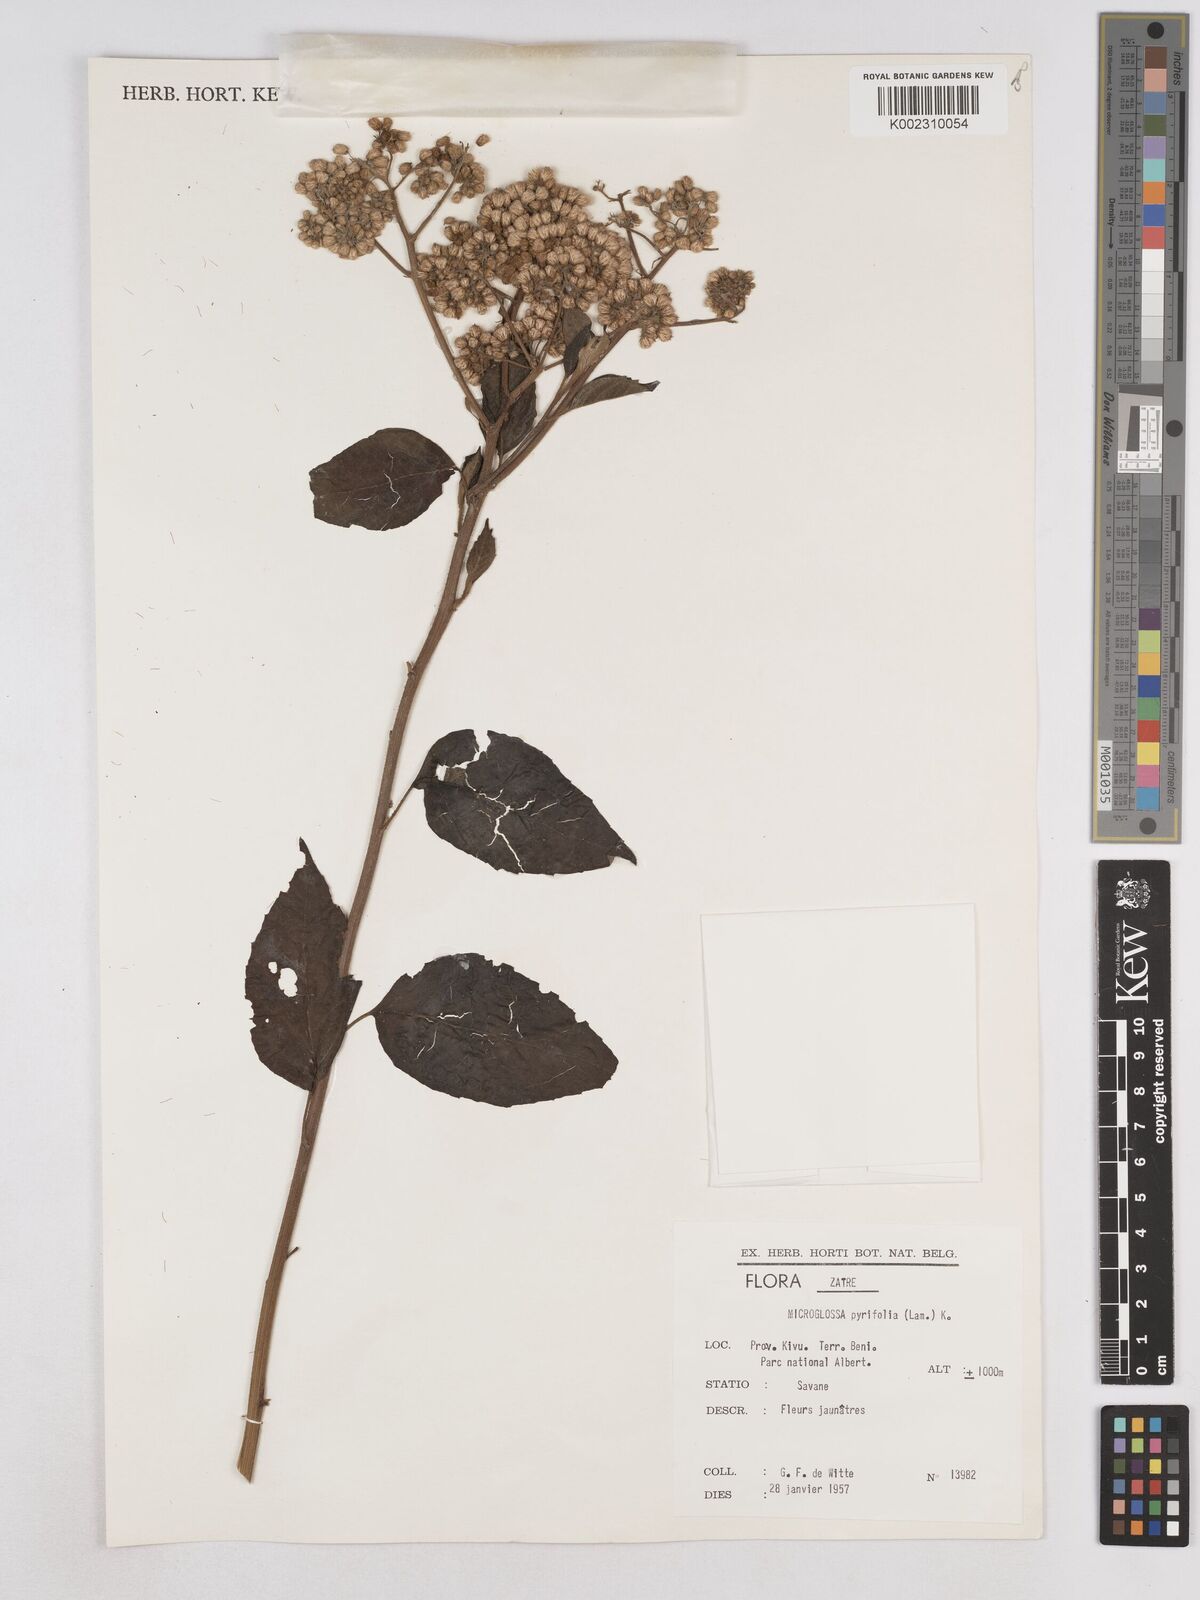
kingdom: Plantae
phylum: Tracheophyta
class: Magnoliopsida
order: Asterales
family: Asteraceae
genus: Microglossa
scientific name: Microglossa pyrifolia
